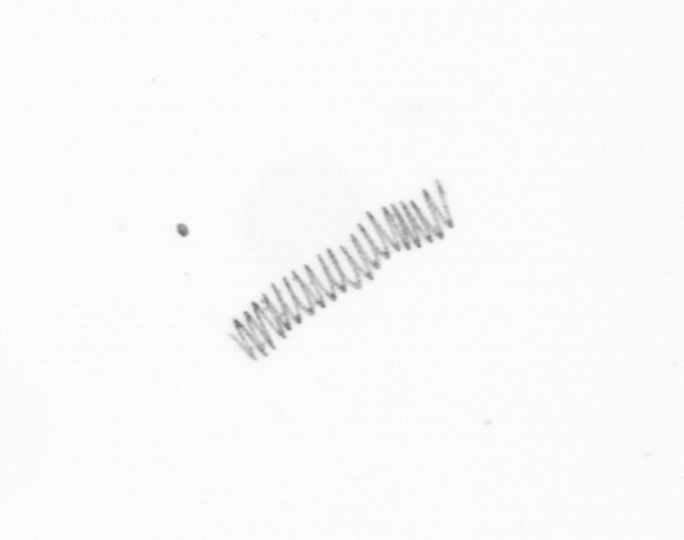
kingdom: Chromista
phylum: Ochrophyta
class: Bacillariophyceae
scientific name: Bacillariophyceae
